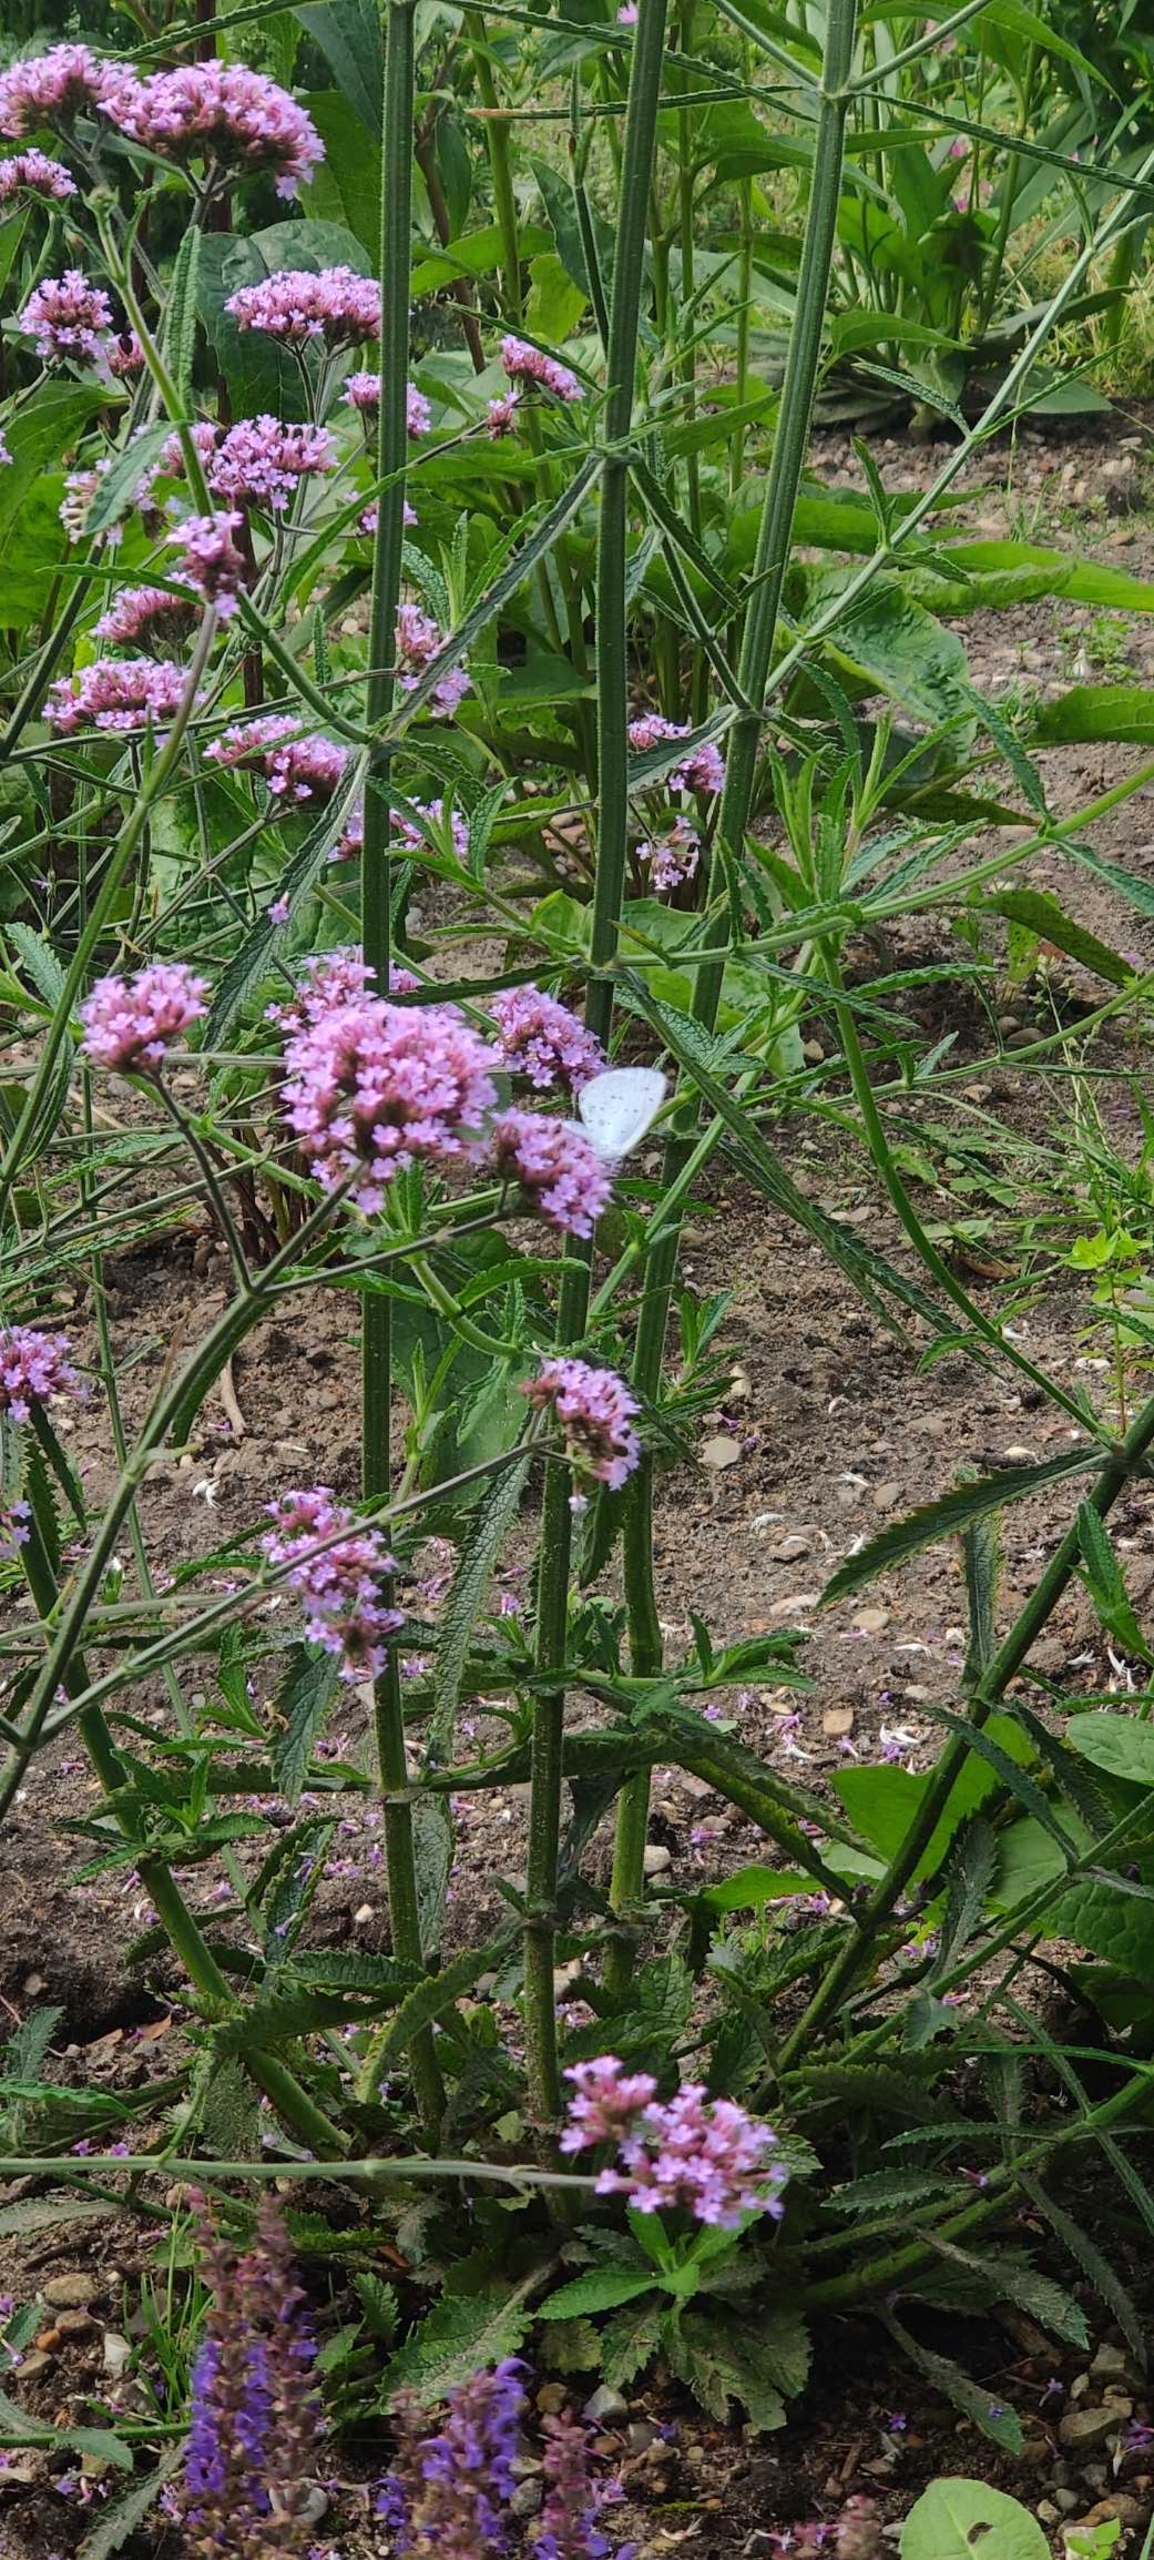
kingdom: Animalia
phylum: Arthropoda
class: Insecta
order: Lepidoptera
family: Lycaenidae
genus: Celastrina
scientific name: Celastrina argiolus
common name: Skovblåfugl
